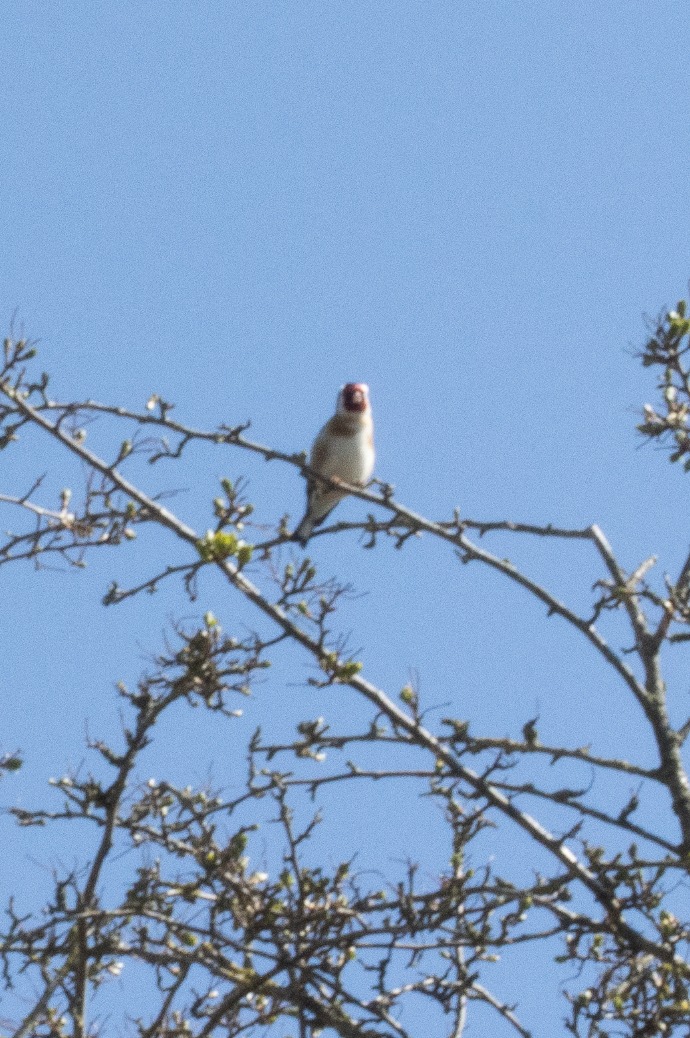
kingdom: Animalia
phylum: Chordata
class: Aves
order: Passeriformes
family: Fringillidae
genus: Carduelis
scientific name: Carduelis carduelis
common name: Stillits
